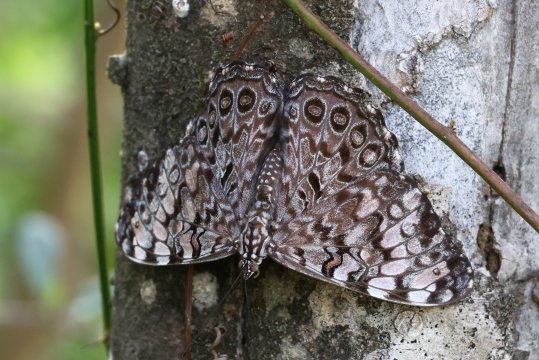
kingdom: Animalia
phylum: Arthropoda
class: Insecta
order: Lepidoptera
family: Nymphalidae
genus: Hamadryas
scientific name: Hamadryas guatemalena
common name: Guatemalan Cracker
